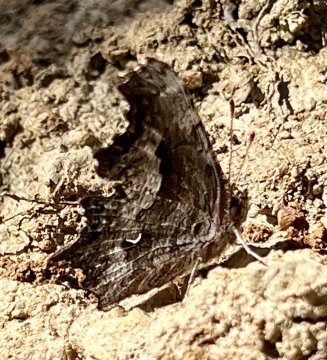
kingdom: Animalia
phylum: Arthropoda
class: Insecta
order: Lepidoptera
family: Nymphalidae
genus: Polygonia
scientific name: Polygonia faunus
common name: Green Comma
